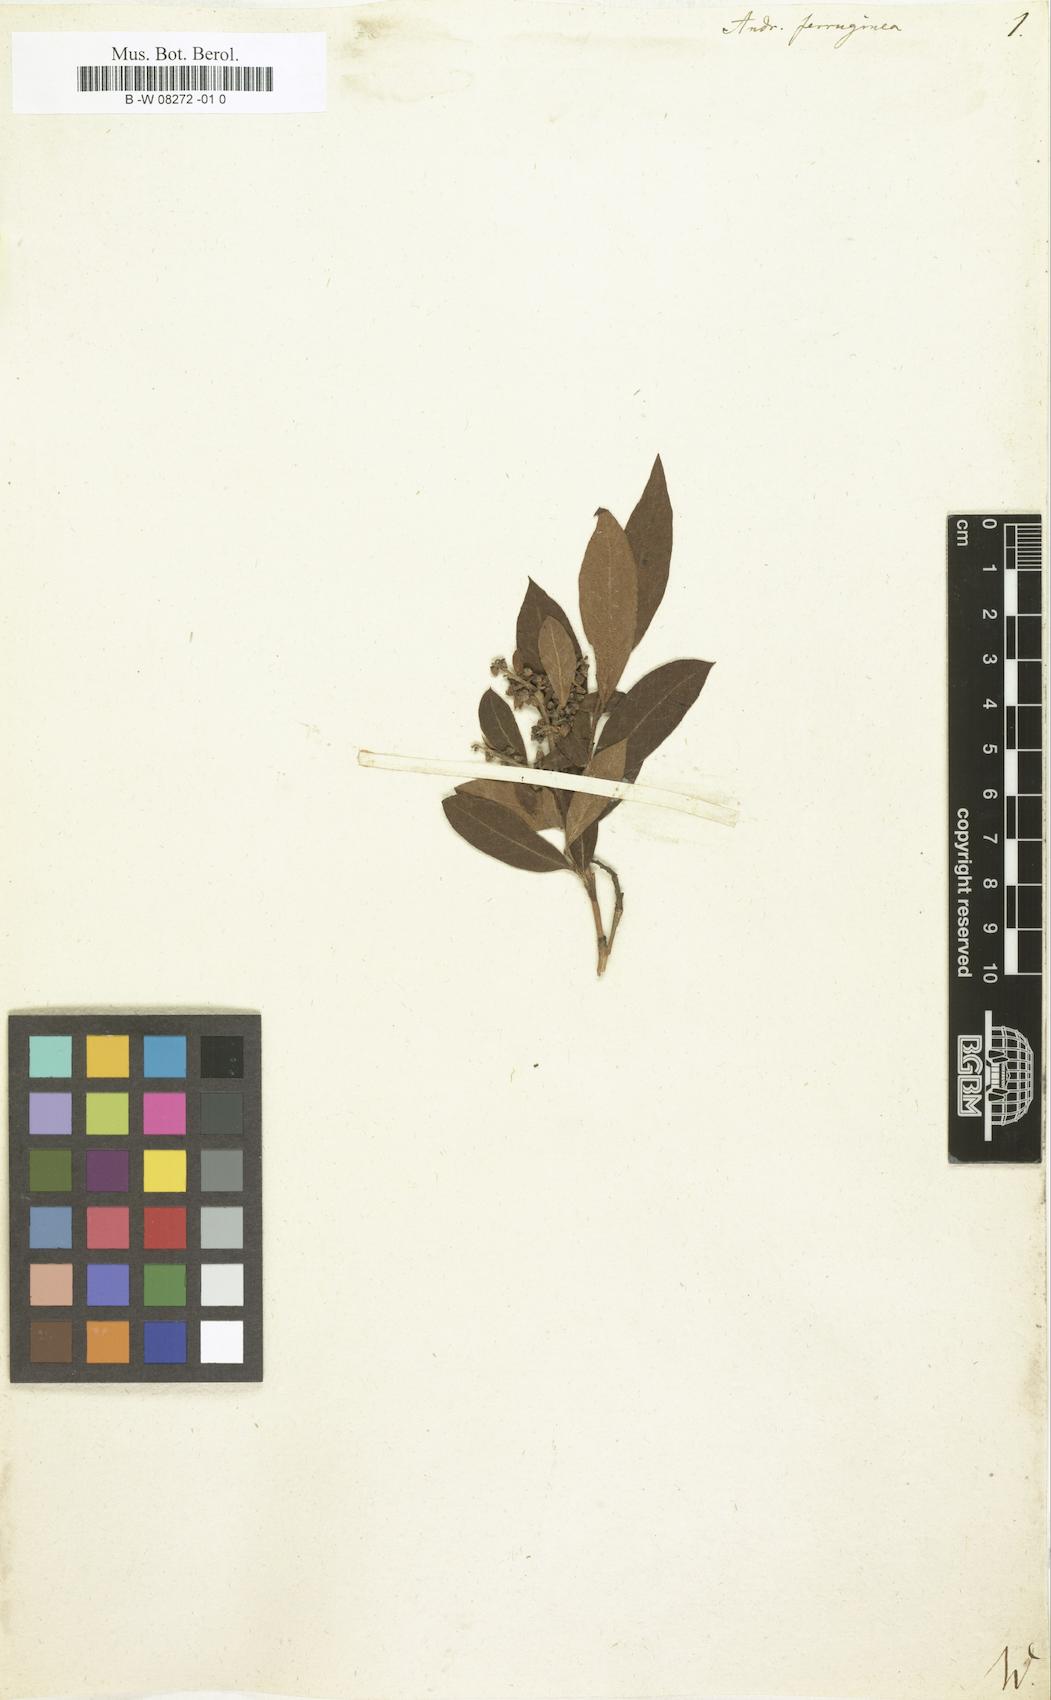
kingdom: Plantae
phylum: Tracheophyta
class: Magnoliopsida
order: Ericales
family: Ericaceae
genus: Lyonia
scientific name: Lyonia ferruginea
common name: Rusty lyonia
